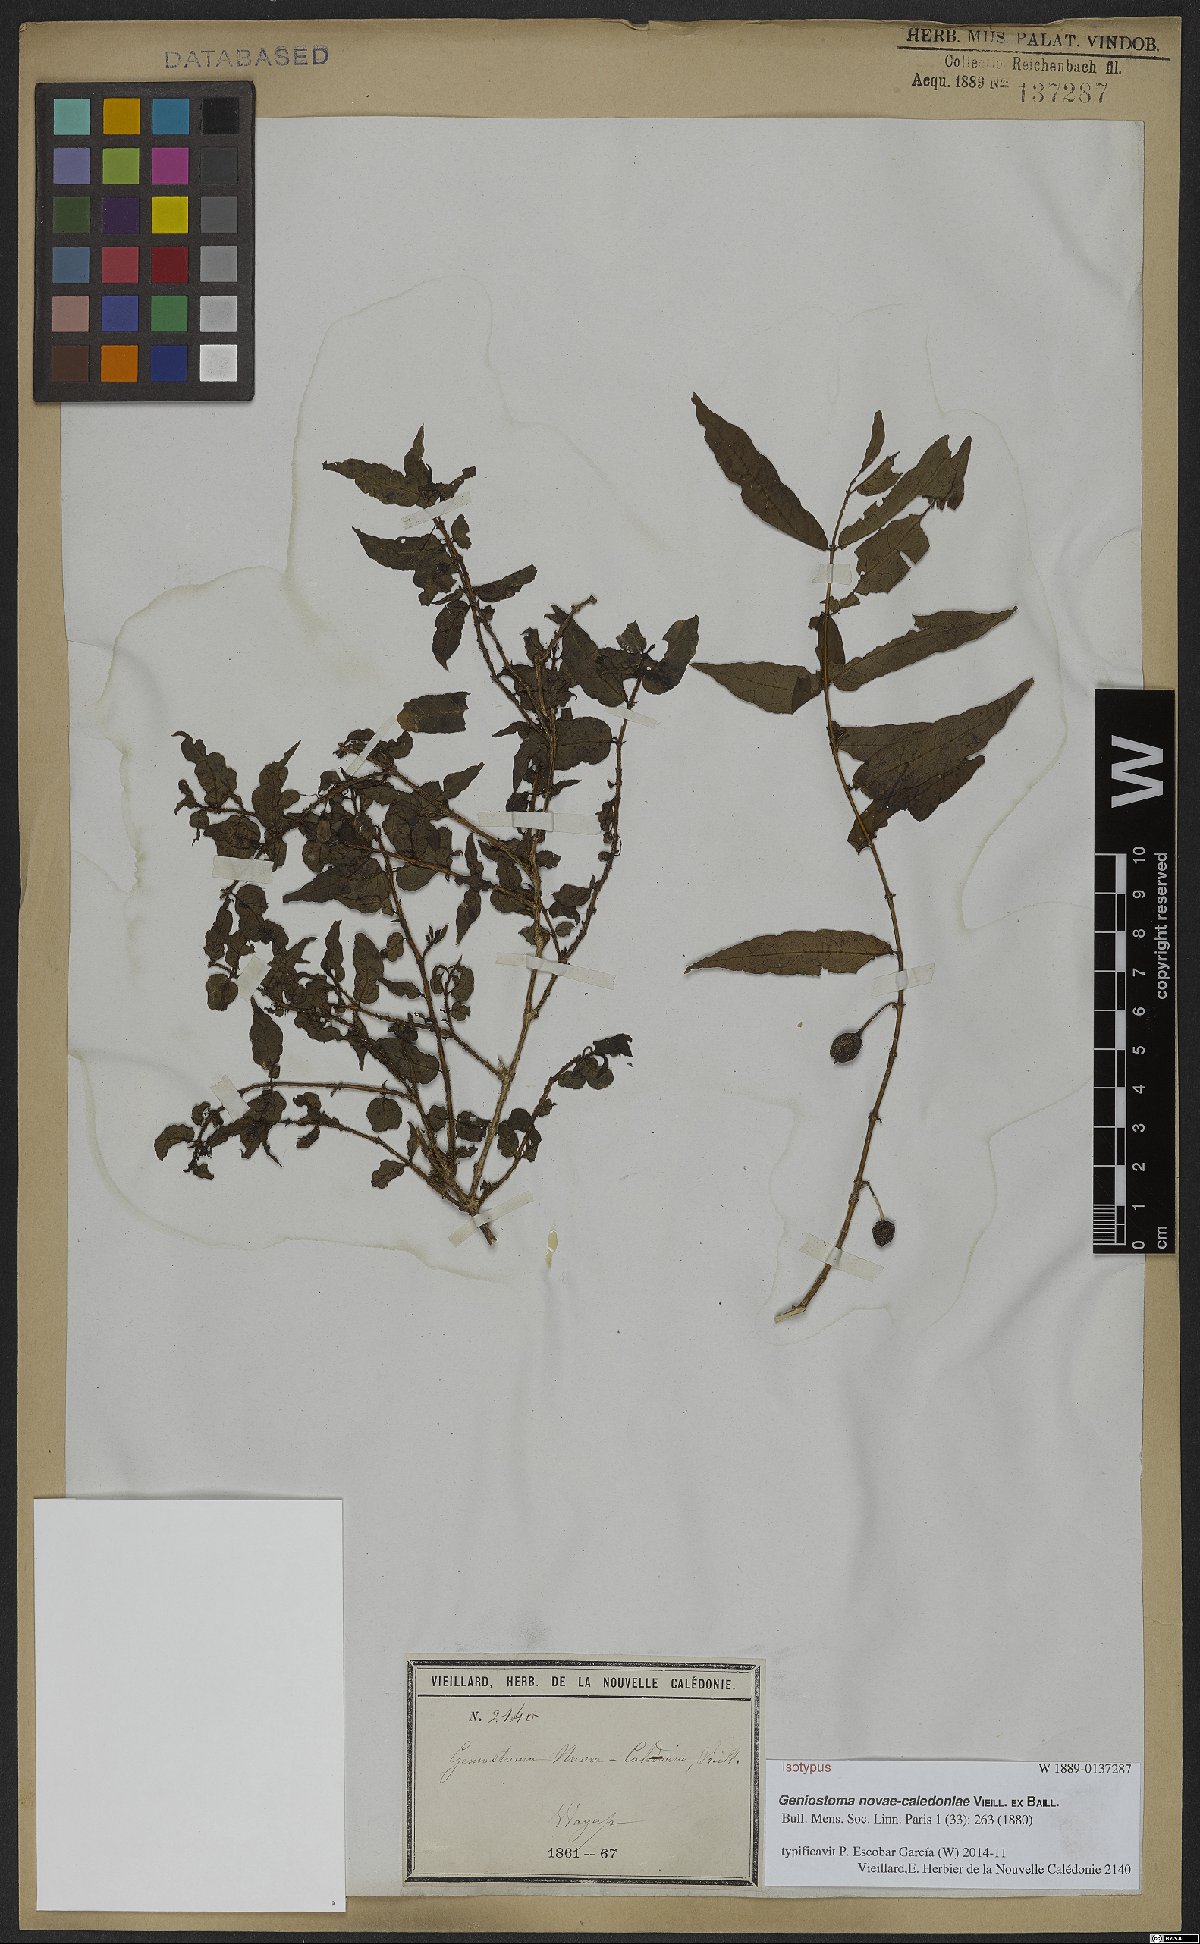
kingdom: Plantae
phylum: Tracheophyta
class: Magnoliopsida
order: Gentianales
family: Loganiaceae
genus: Geniostoma
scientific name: Geniostoma novae-caledoniae
